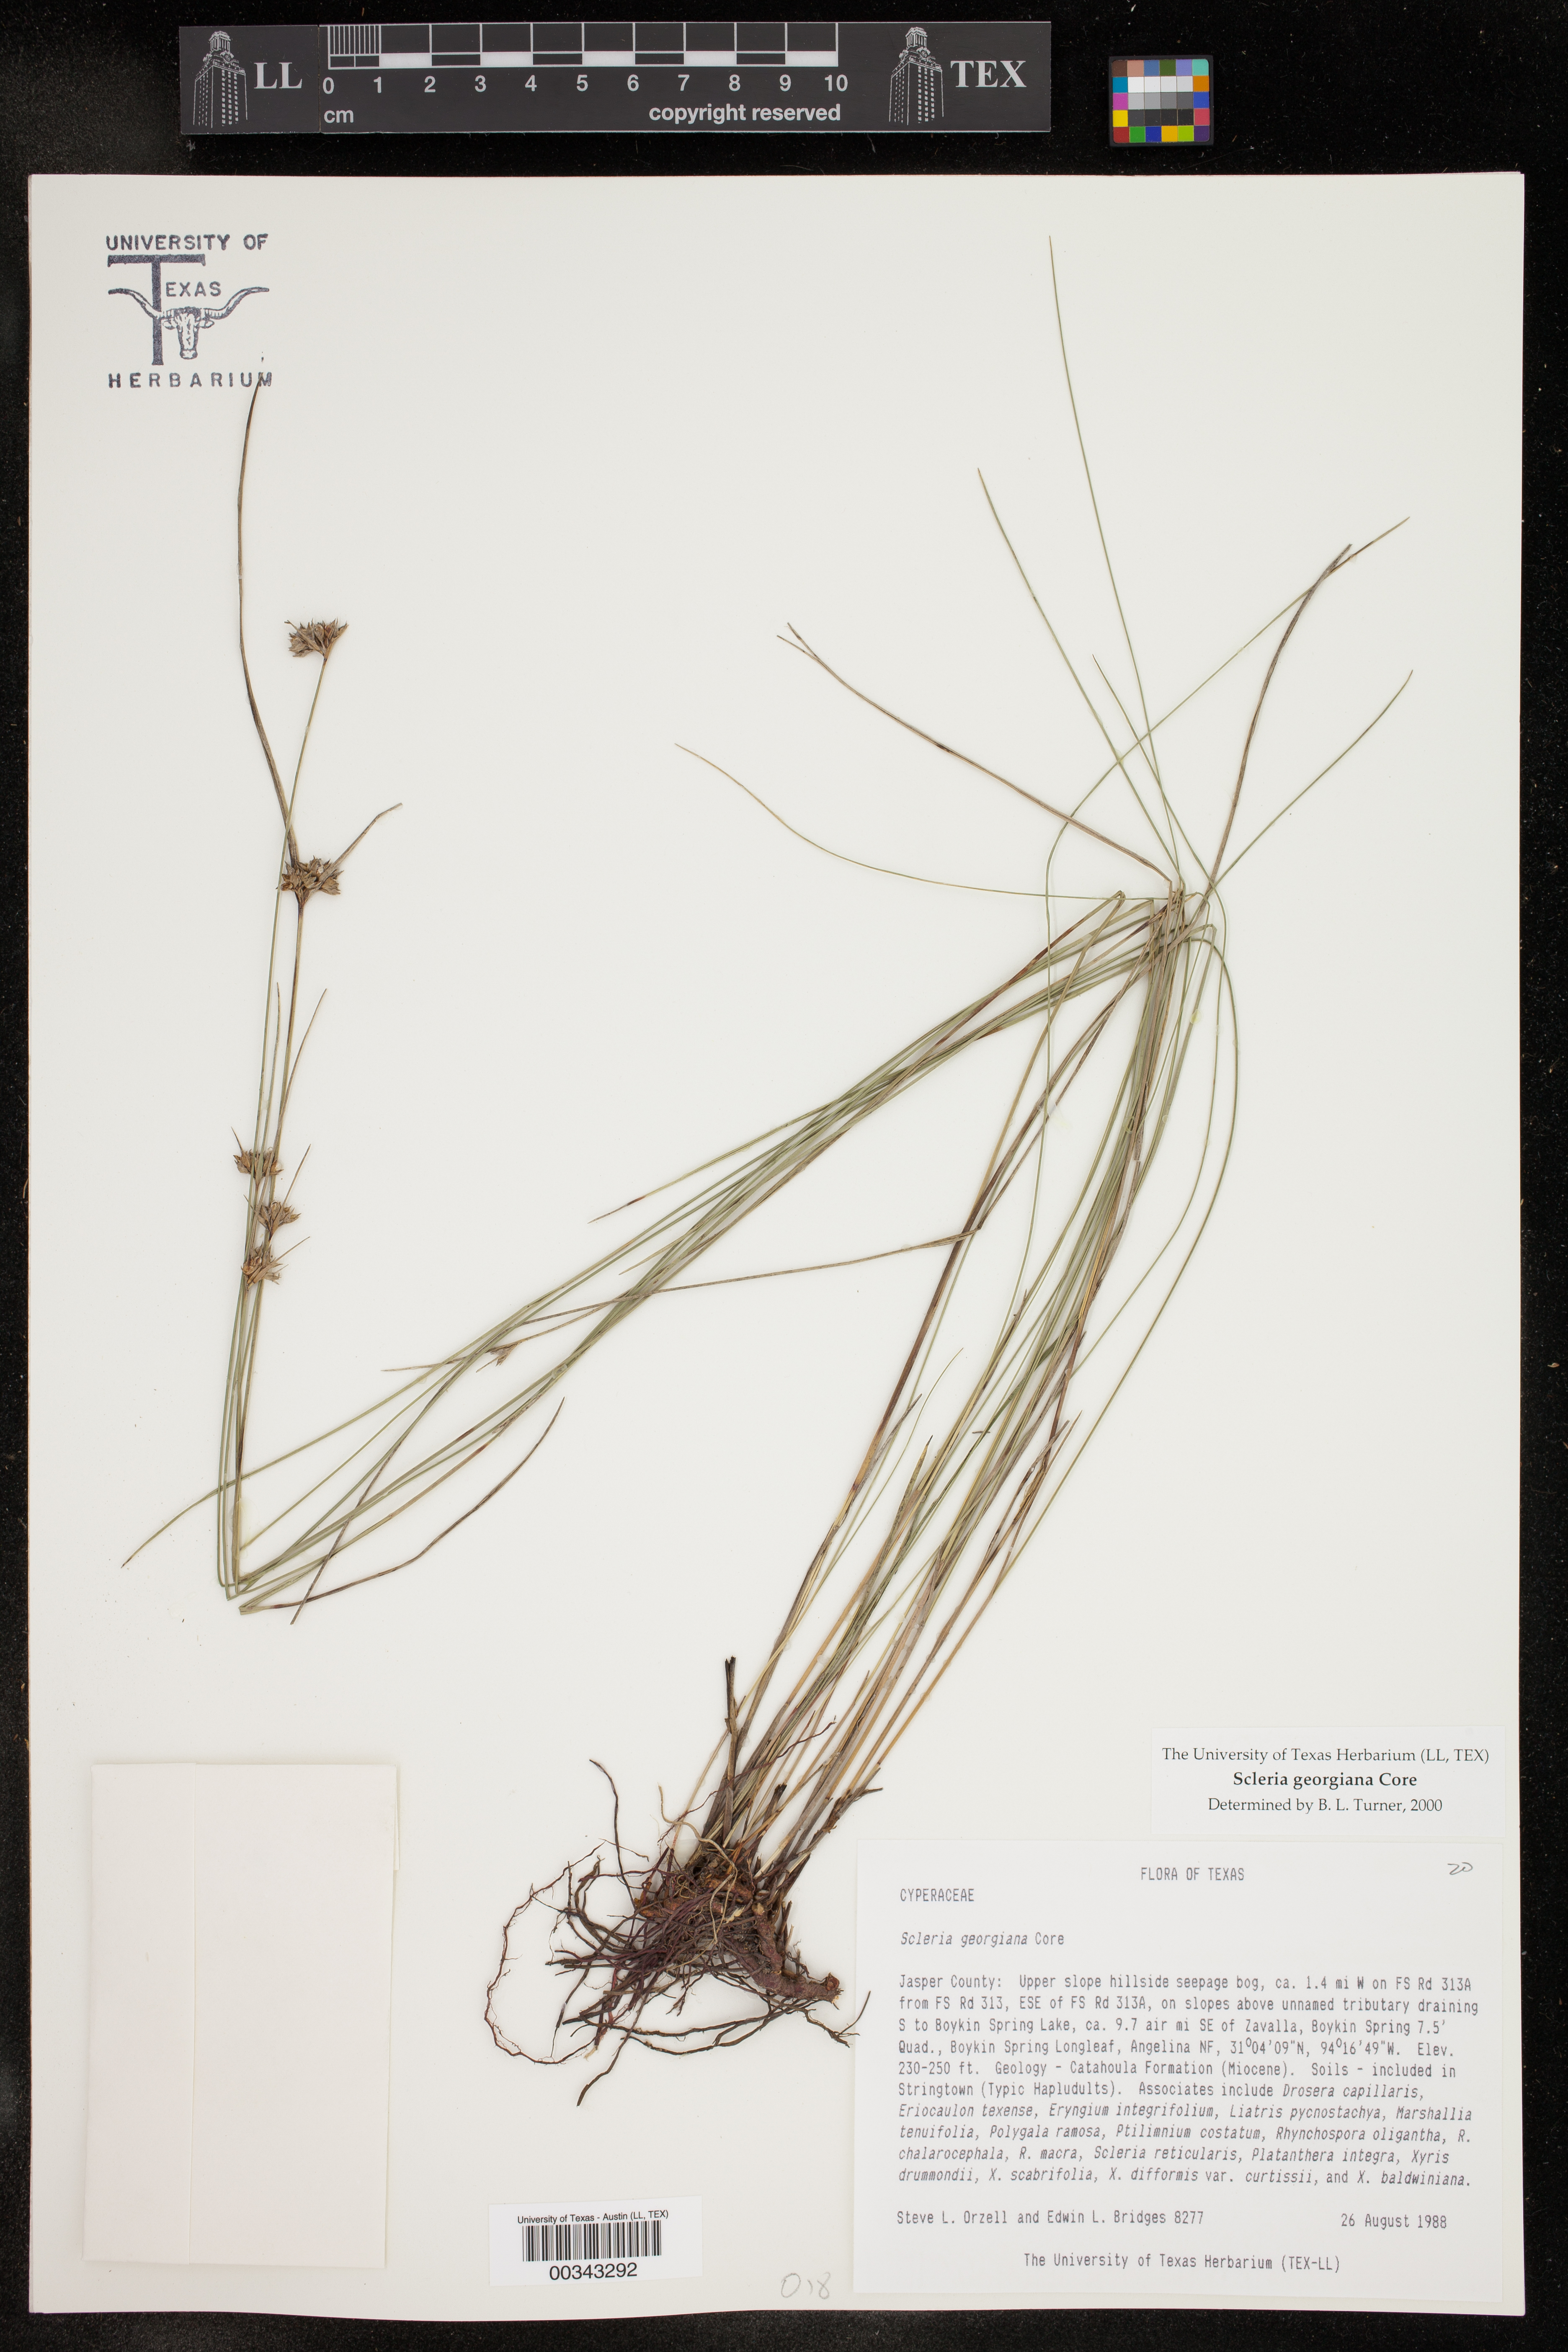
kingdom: Plantae
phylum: Tracheophyta
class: Liliopsida
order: Poales
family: Cyperaceae
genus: Scleria
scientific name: Scleria georgiana
